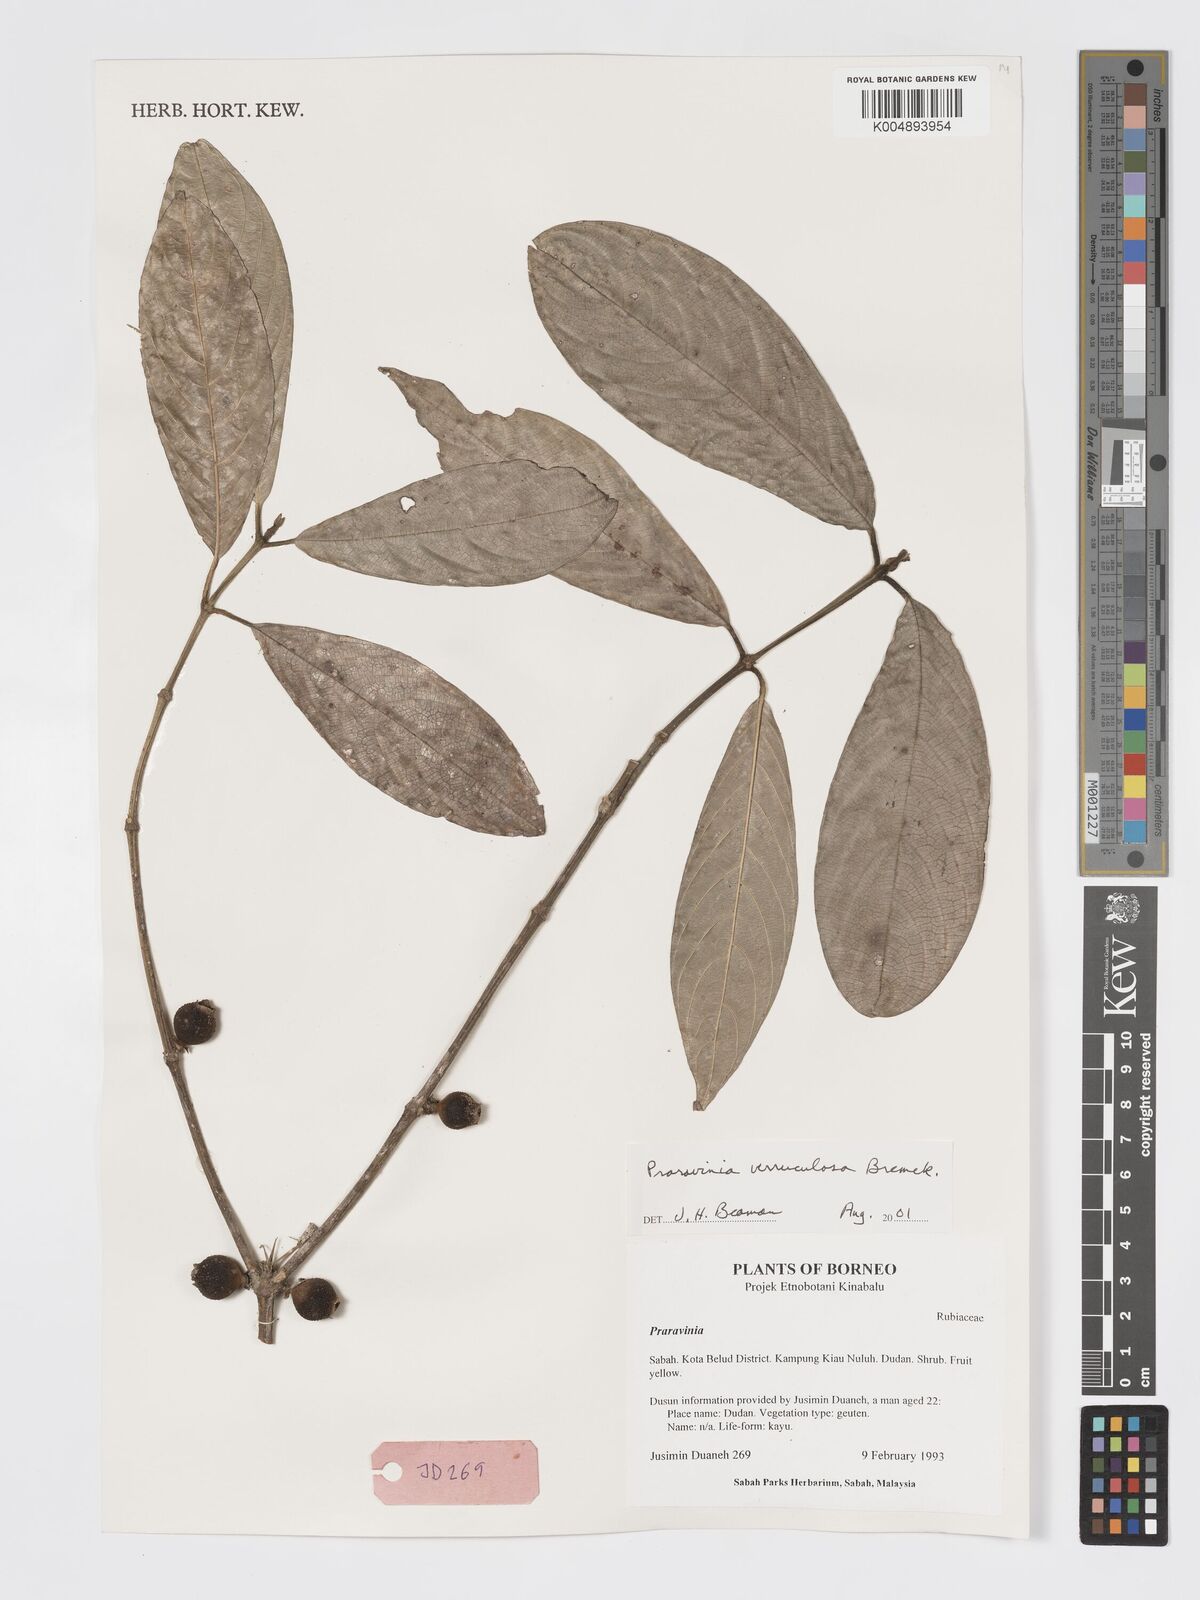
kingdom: Plantae
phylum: Tracheophyta
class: Magnoliopsida
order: Gentianales
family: Rubiaceae
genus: Praravinia
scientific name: Praravinia verruculosa
